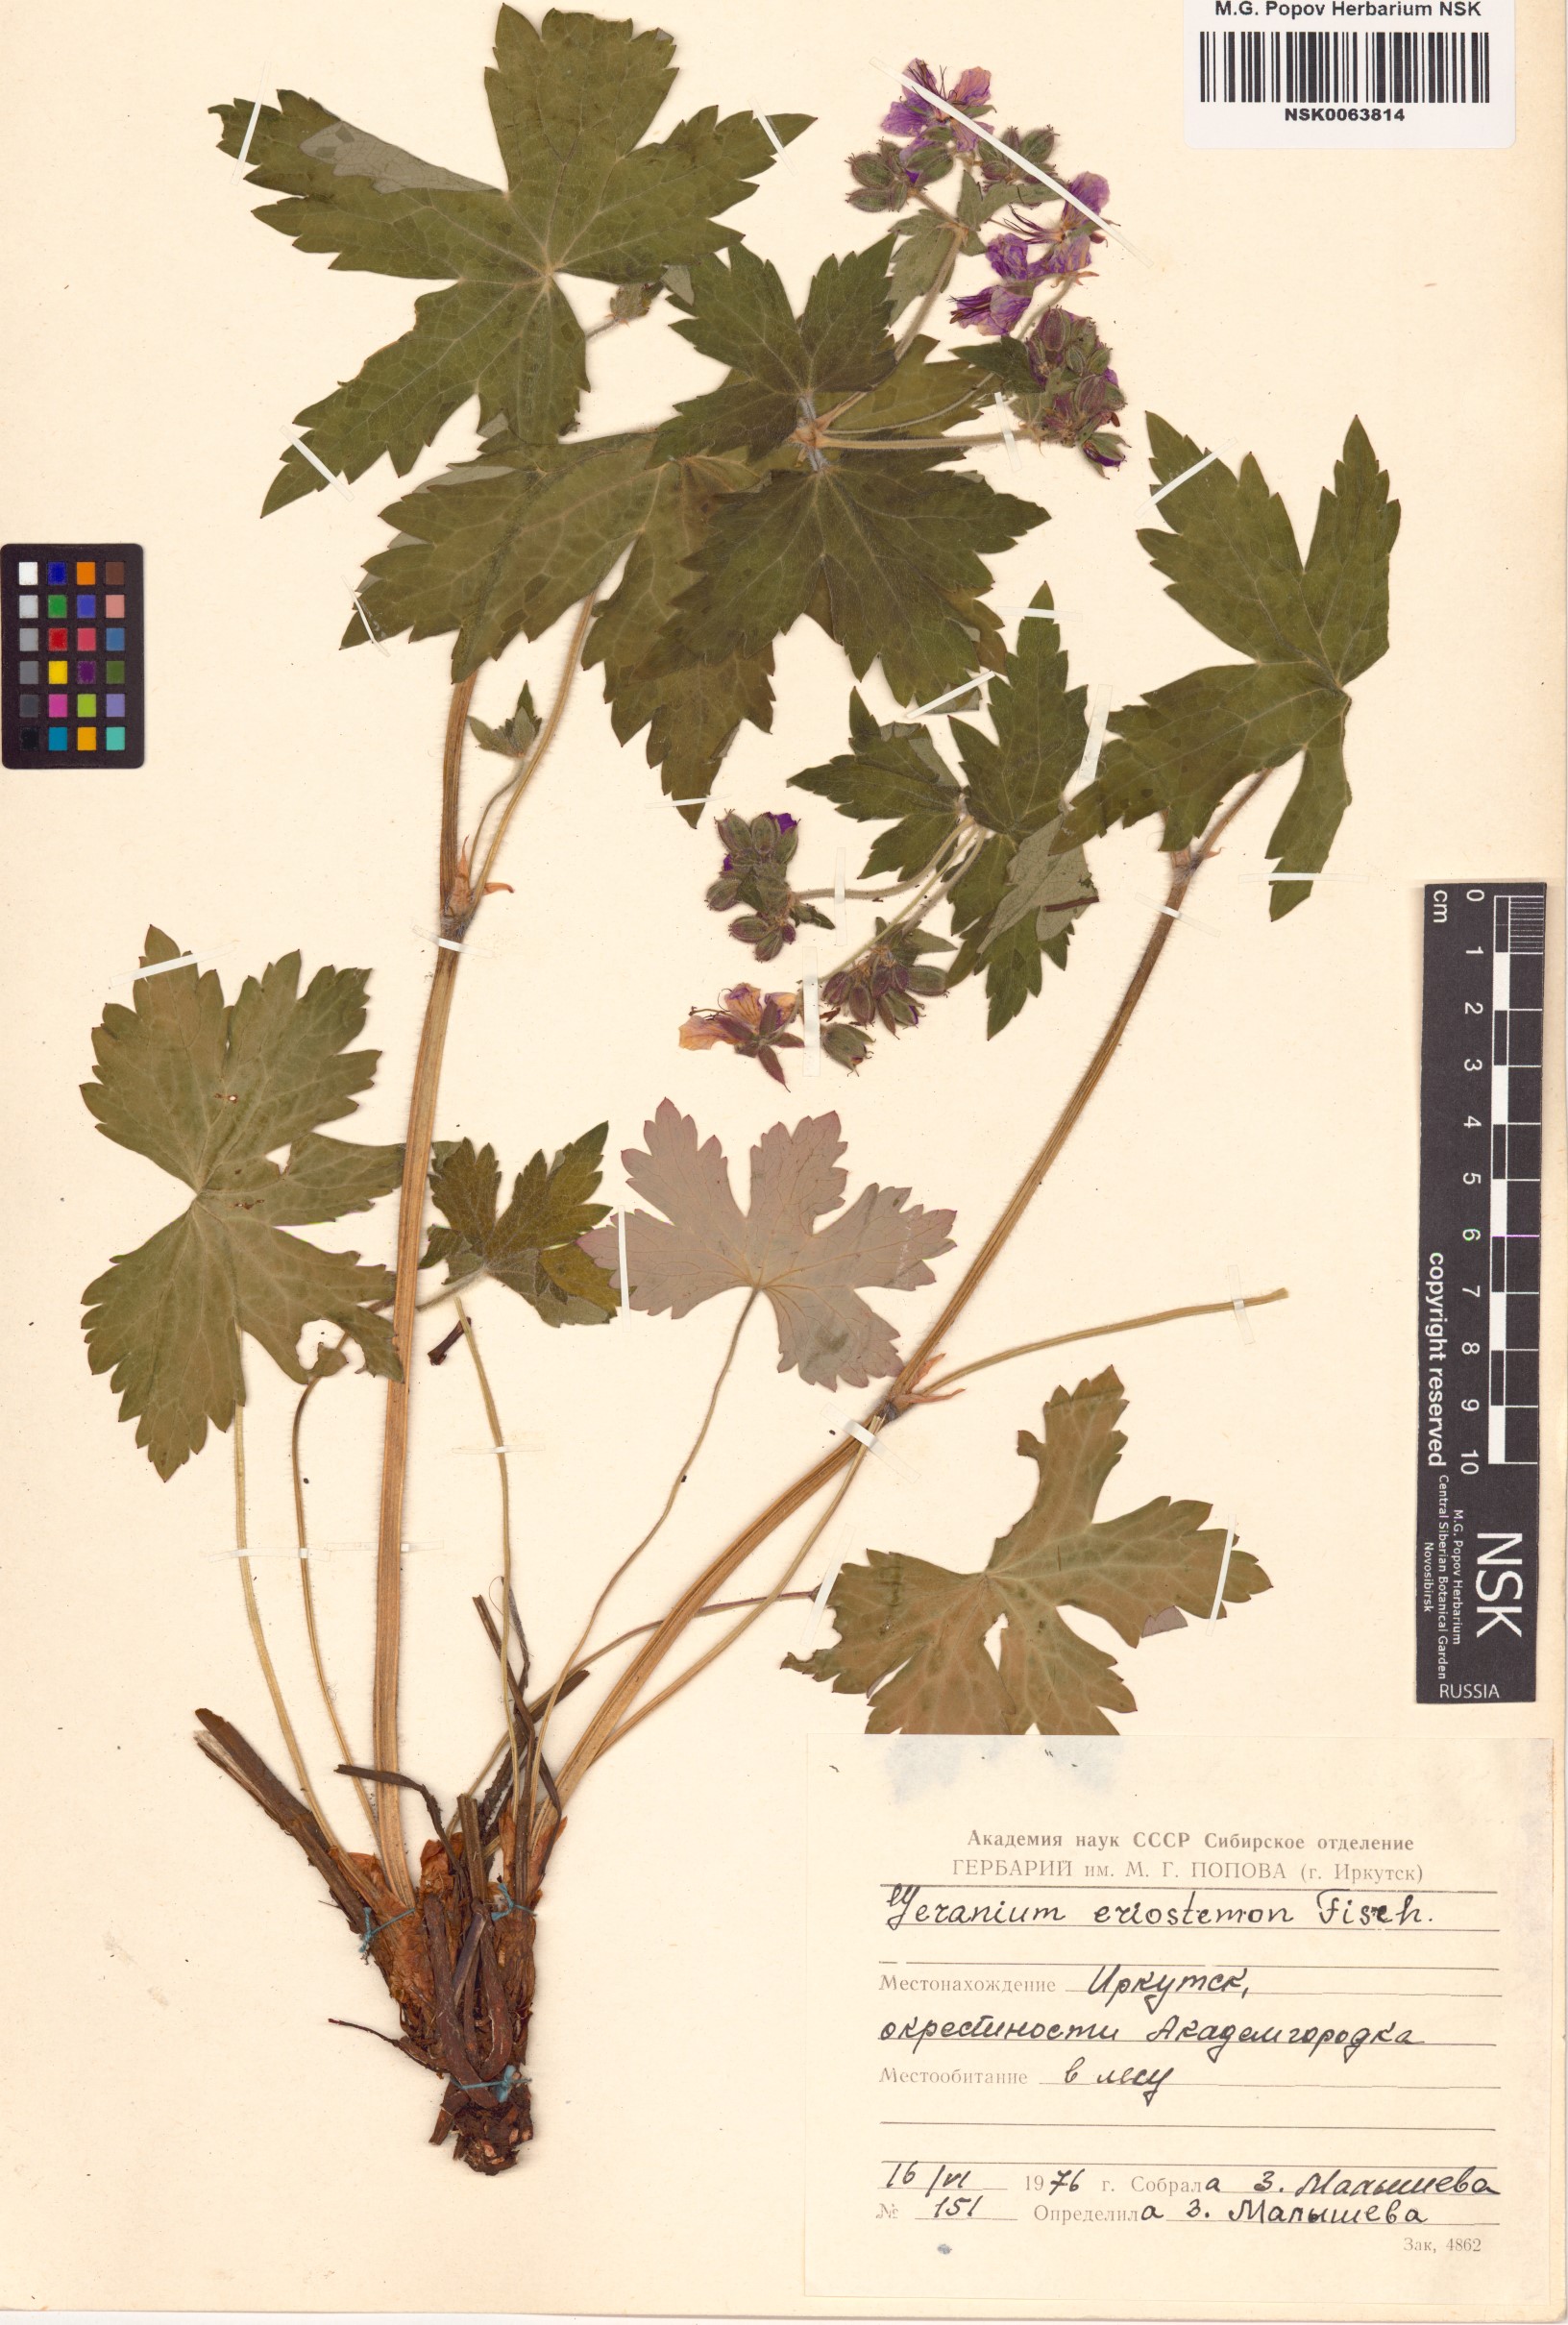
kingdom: Plantae
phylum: Tracheophyta
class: Magnoliopsida
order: Geraniales
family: Geraniaceae
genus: Geranium
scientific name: Geranium platyanthum
